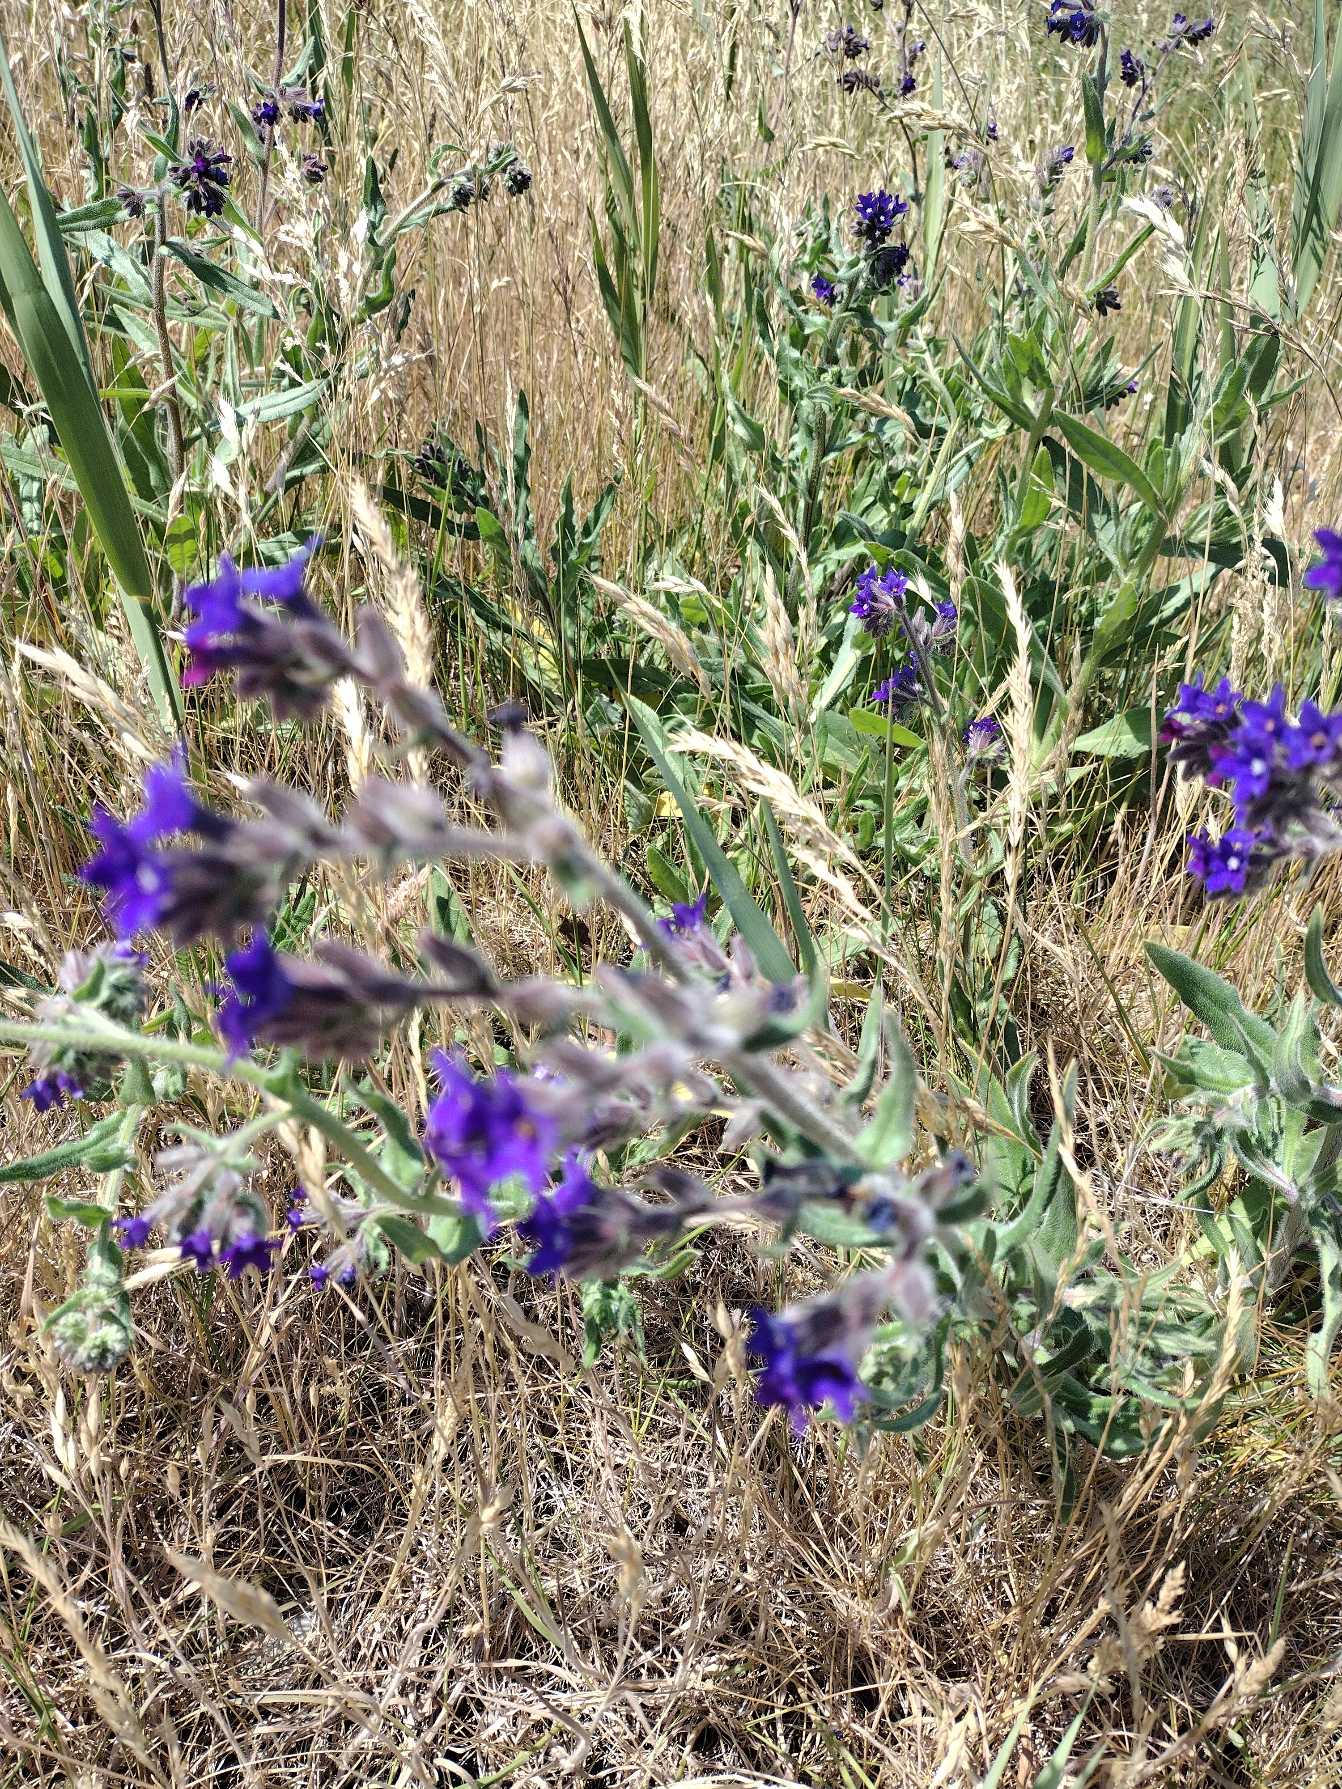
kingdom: Plantae
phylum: Tracheophyta
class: Magnoliopsida
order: Boraginales
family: Boraginaceae
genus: Anchusa
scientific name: Anchusa officinalis
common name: Læge-oksetunge
